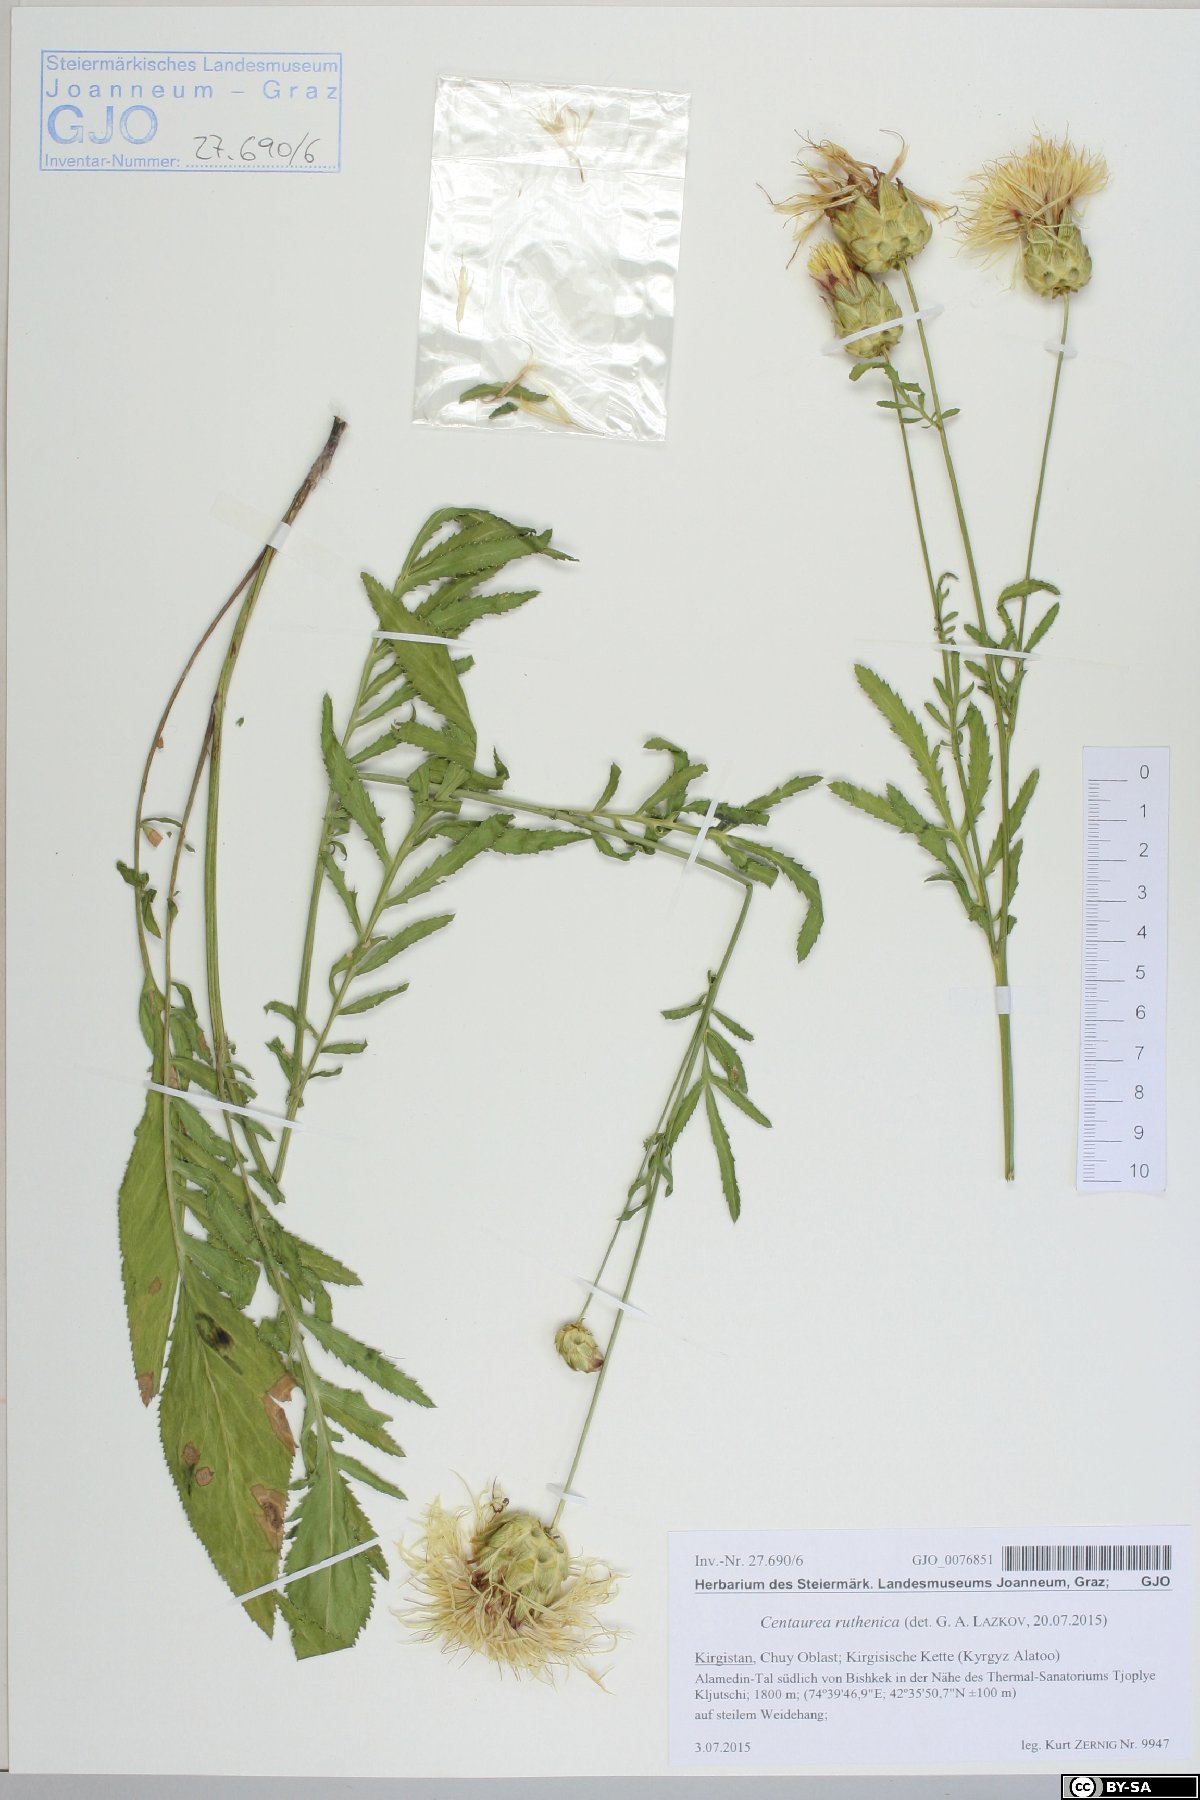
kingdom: Plantae
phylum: Tracheophyta
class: Magnoliopsida
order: Asterales
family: Asteraceae
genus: Rhaponticoides
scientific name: Rhaponticoides ruthenica
